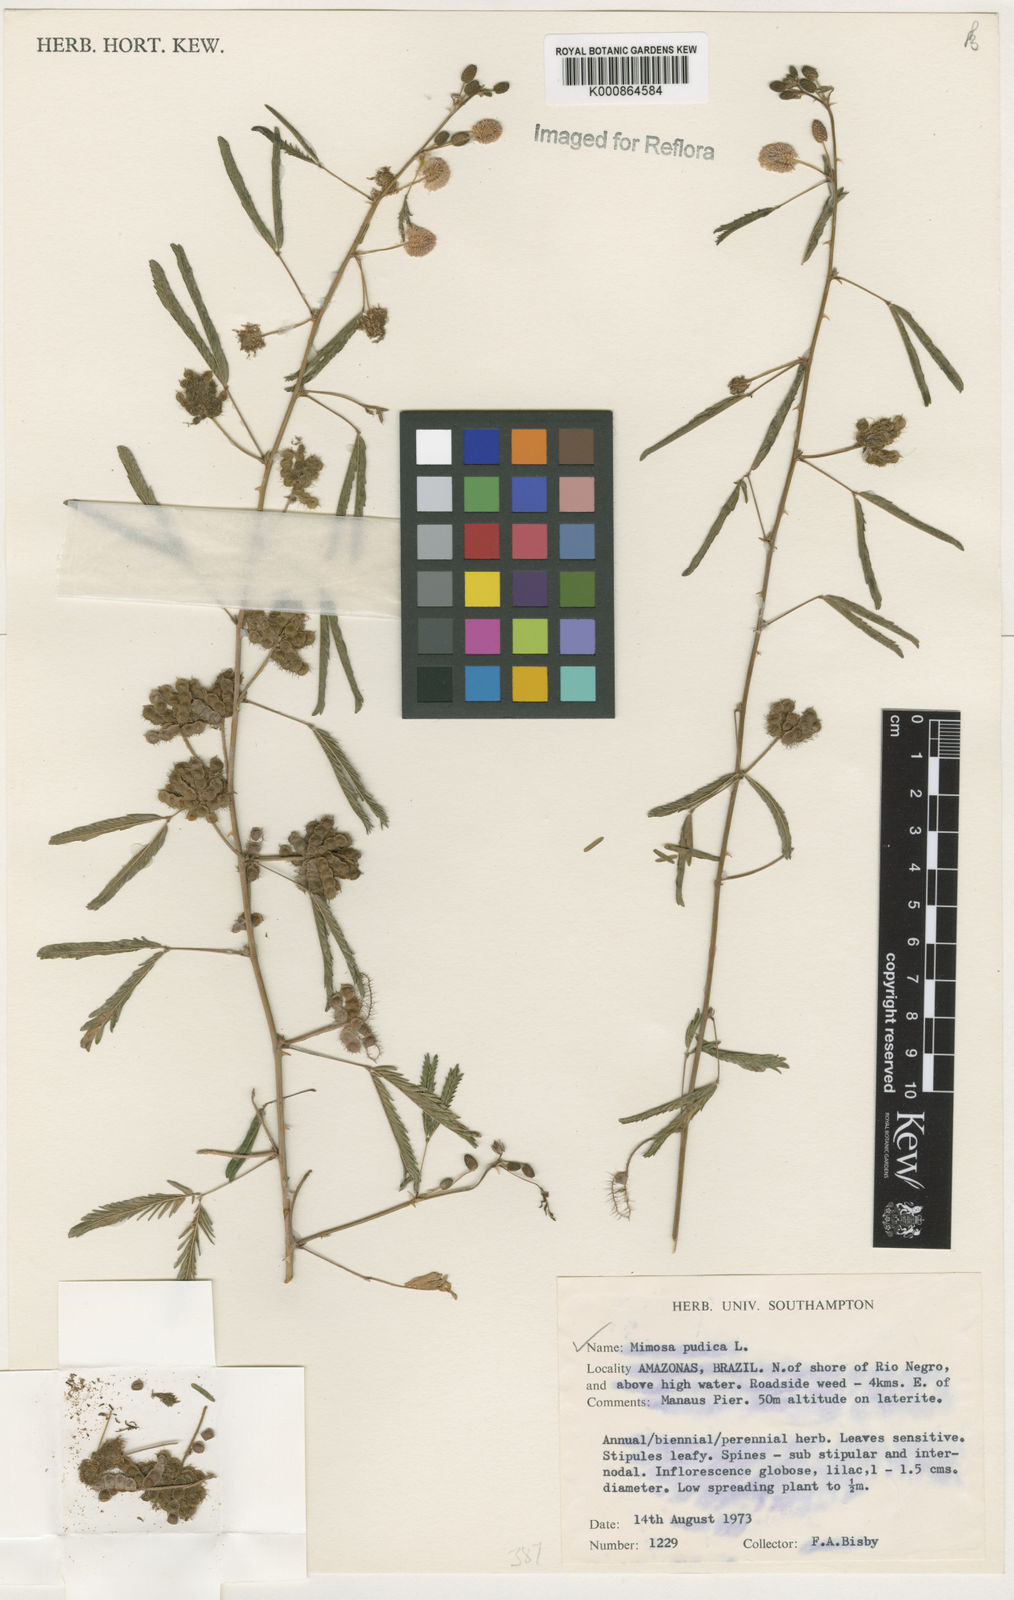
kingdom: Plantae
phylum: Tracheophyta
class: Magnoliopsida
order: Fabales
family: Fabaceae
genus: Mimosa
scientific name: Mimosa pudica
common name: Sensitive plant
